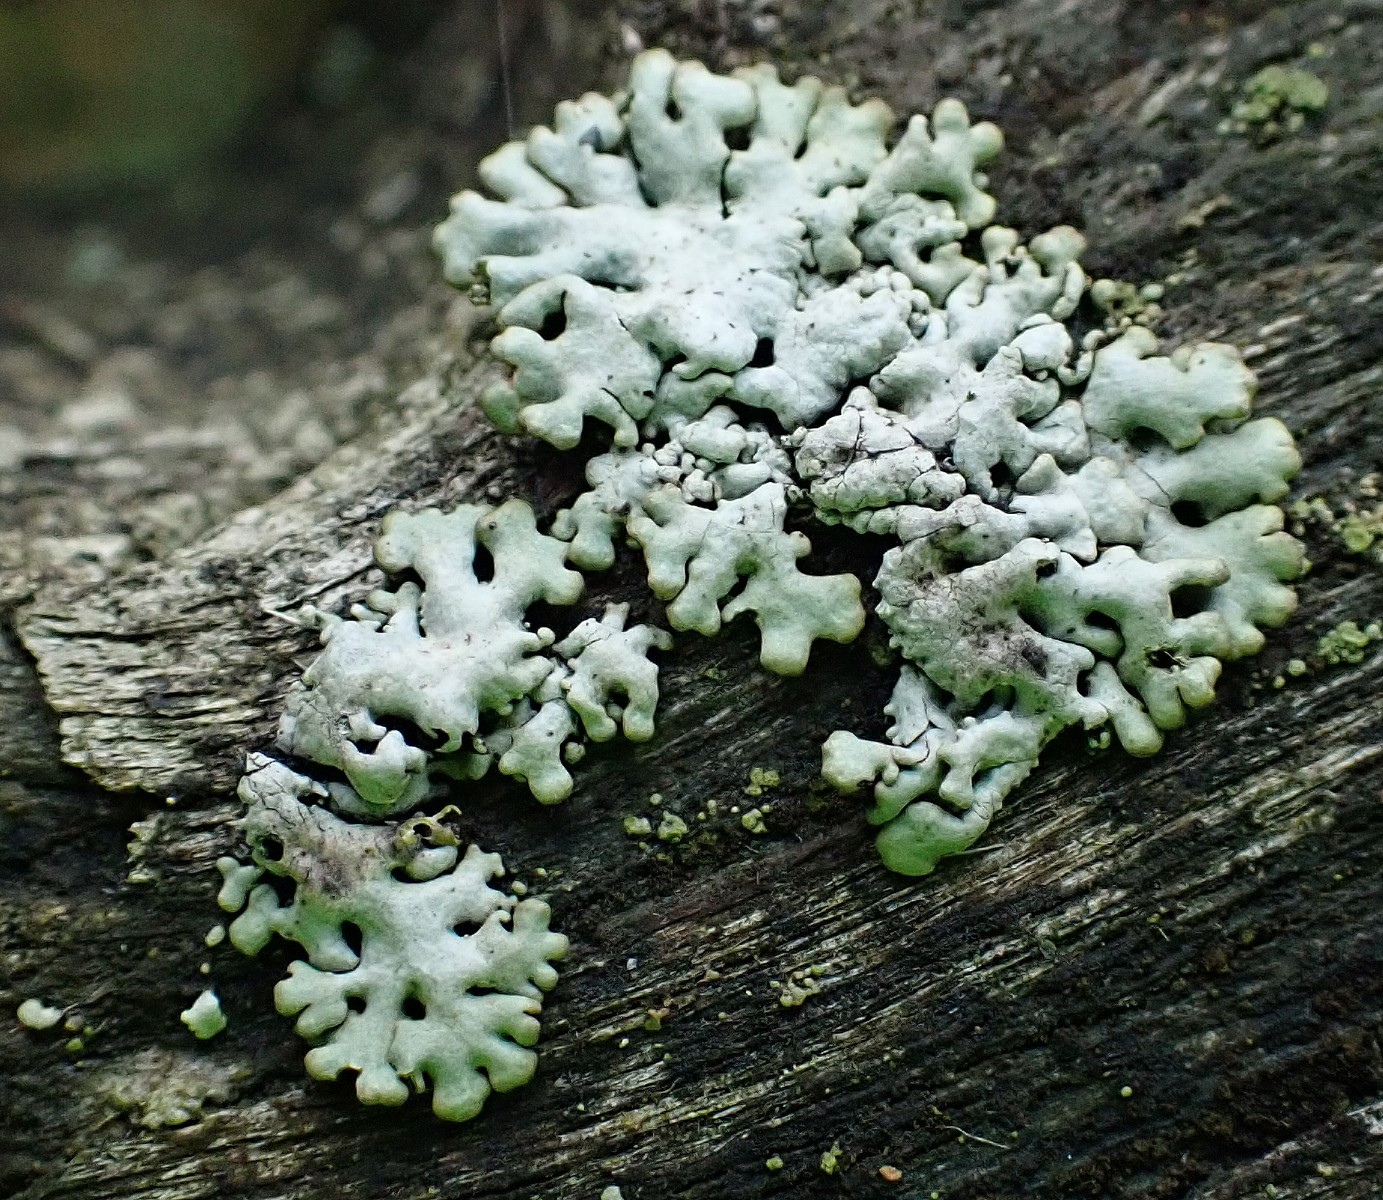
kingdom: Fungi
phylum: Ascomycota
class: Lecanoromycetes
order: Lecanorales
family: Parmeliaceae
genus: Hypogymnia
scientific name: Hypogymnia physodes
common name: almindelig kvistlav
